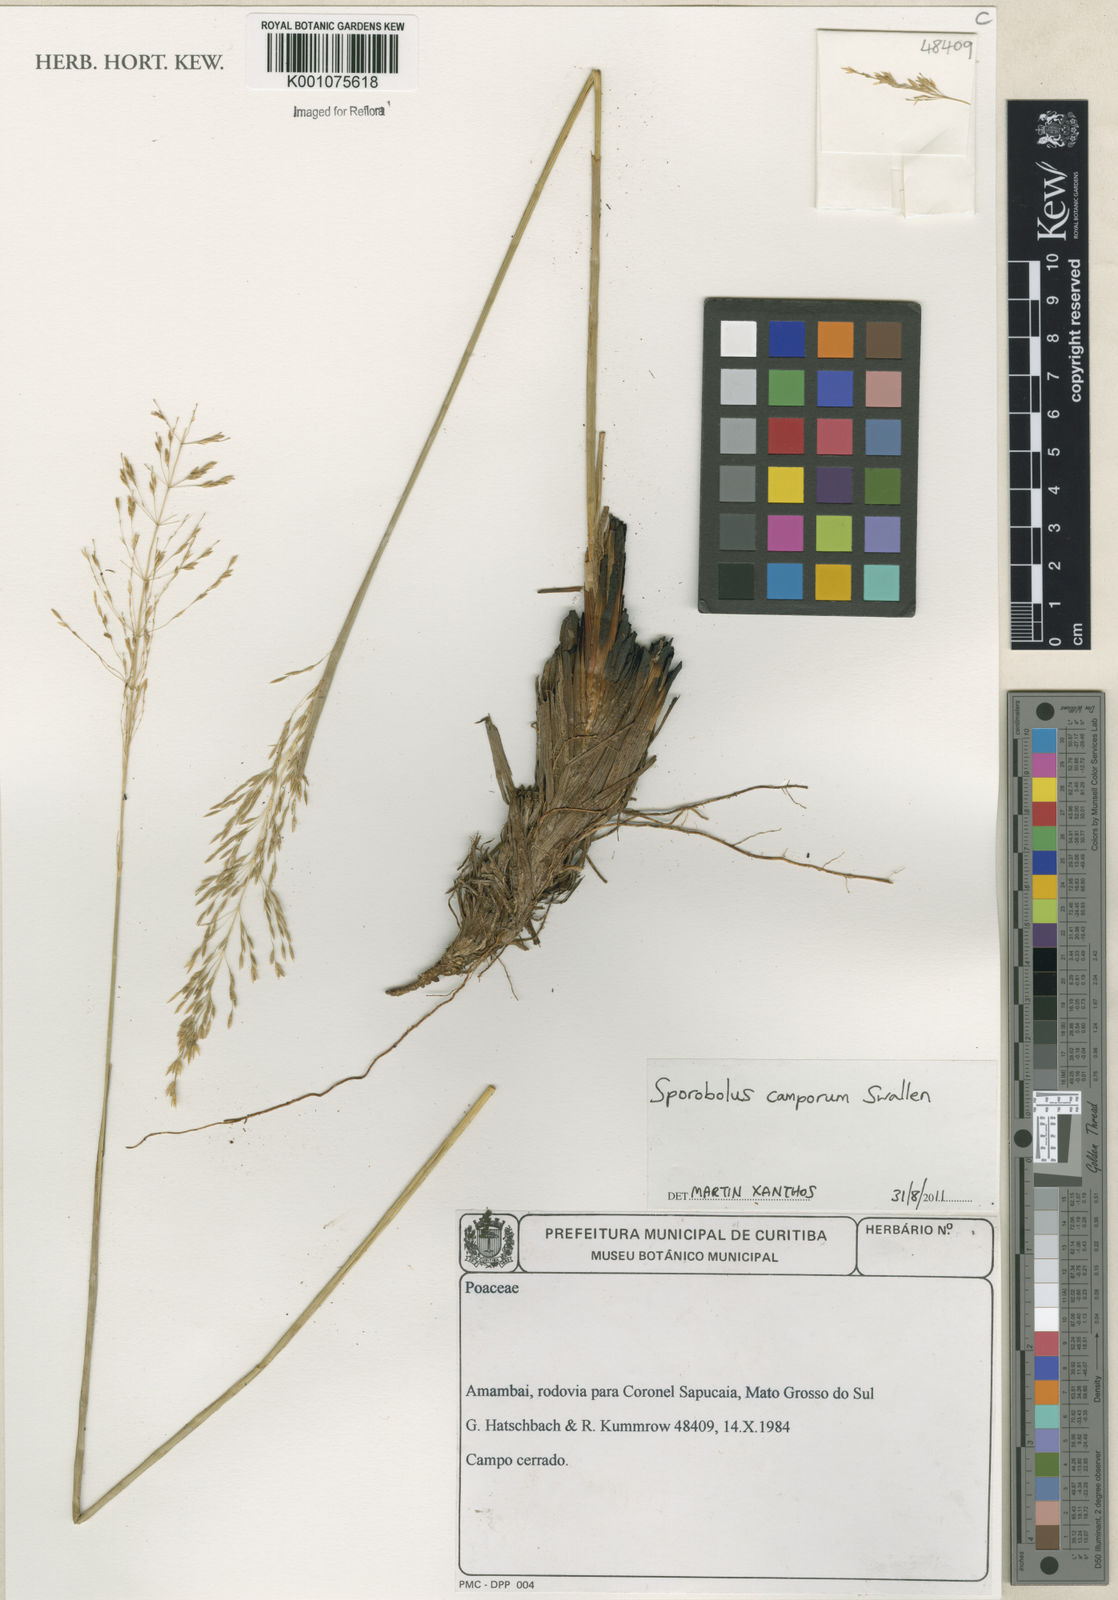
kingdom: Plantae
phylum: Tracheophyta
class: Liliopsida
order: Poales
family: Poaceae
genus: Sporobolus
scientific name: Sporobolus camporum
